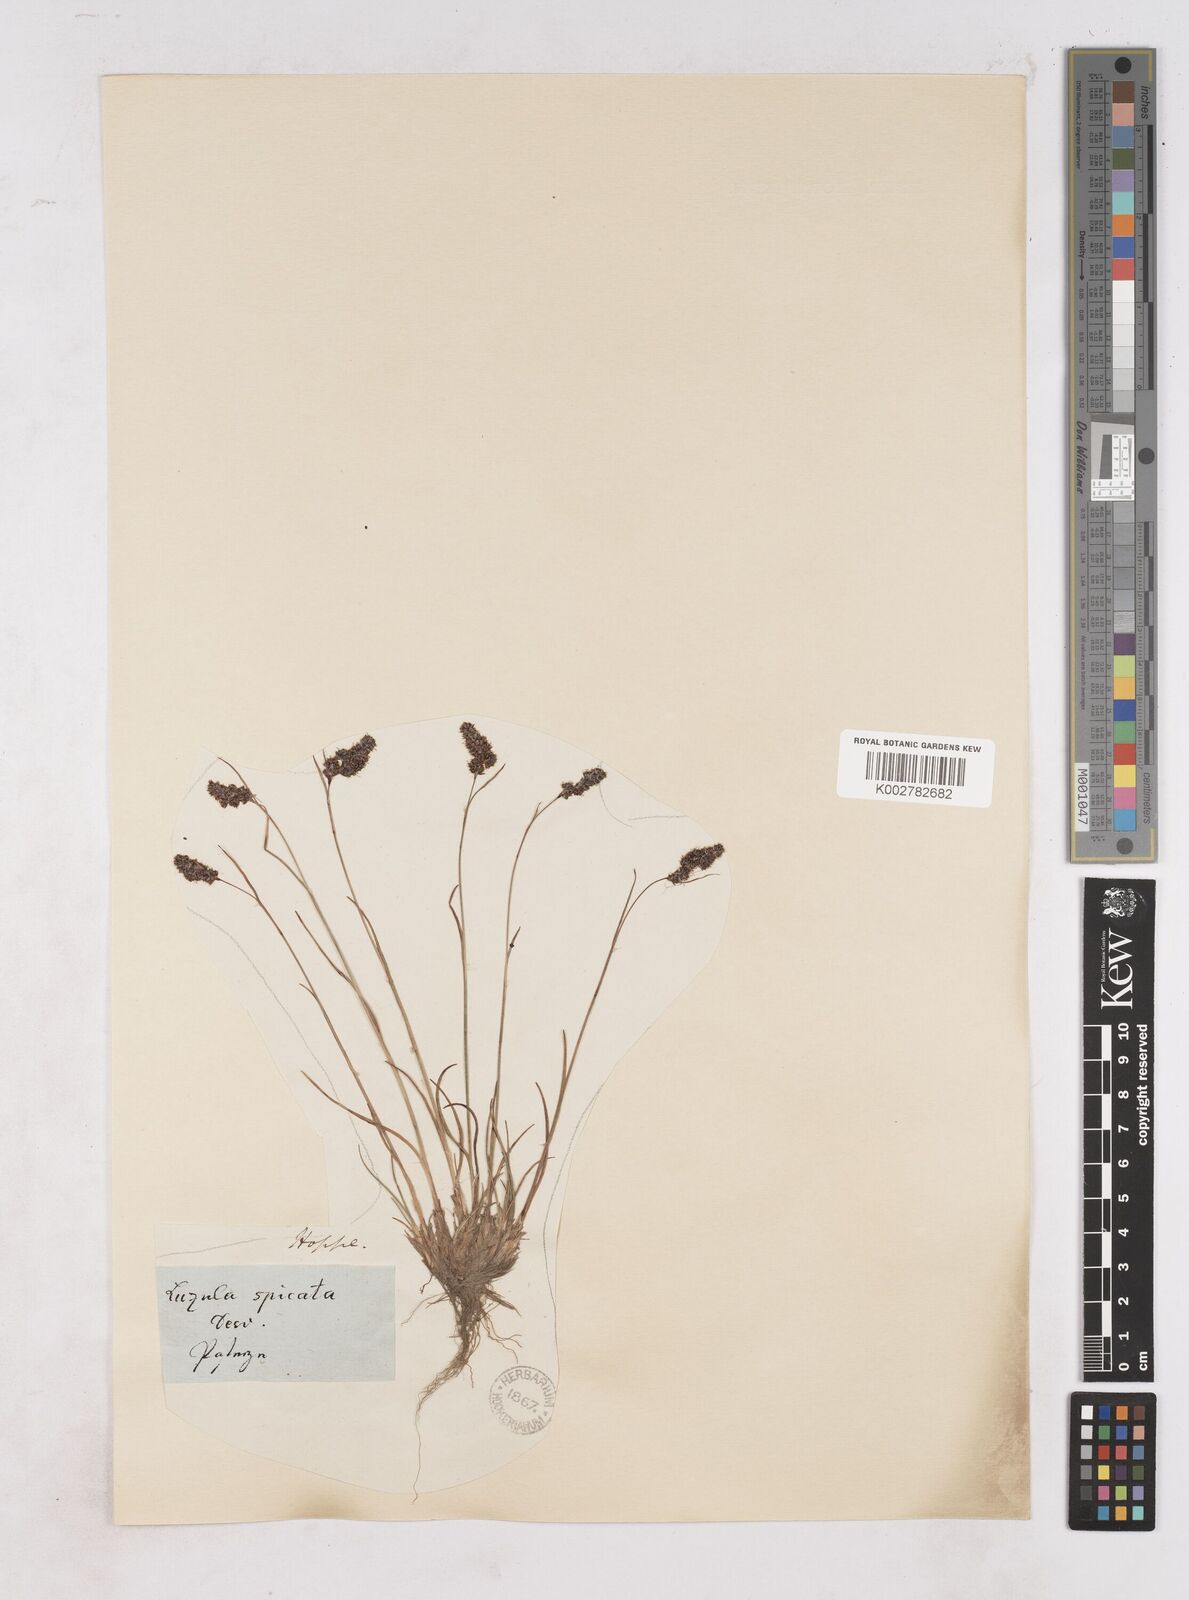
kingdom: Plantae
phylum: Tracheophyta
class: Liliopsida
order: Poales
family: Juncaceae
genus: Luzula
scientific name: Luzula spicata
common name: Spiked wood-rush
